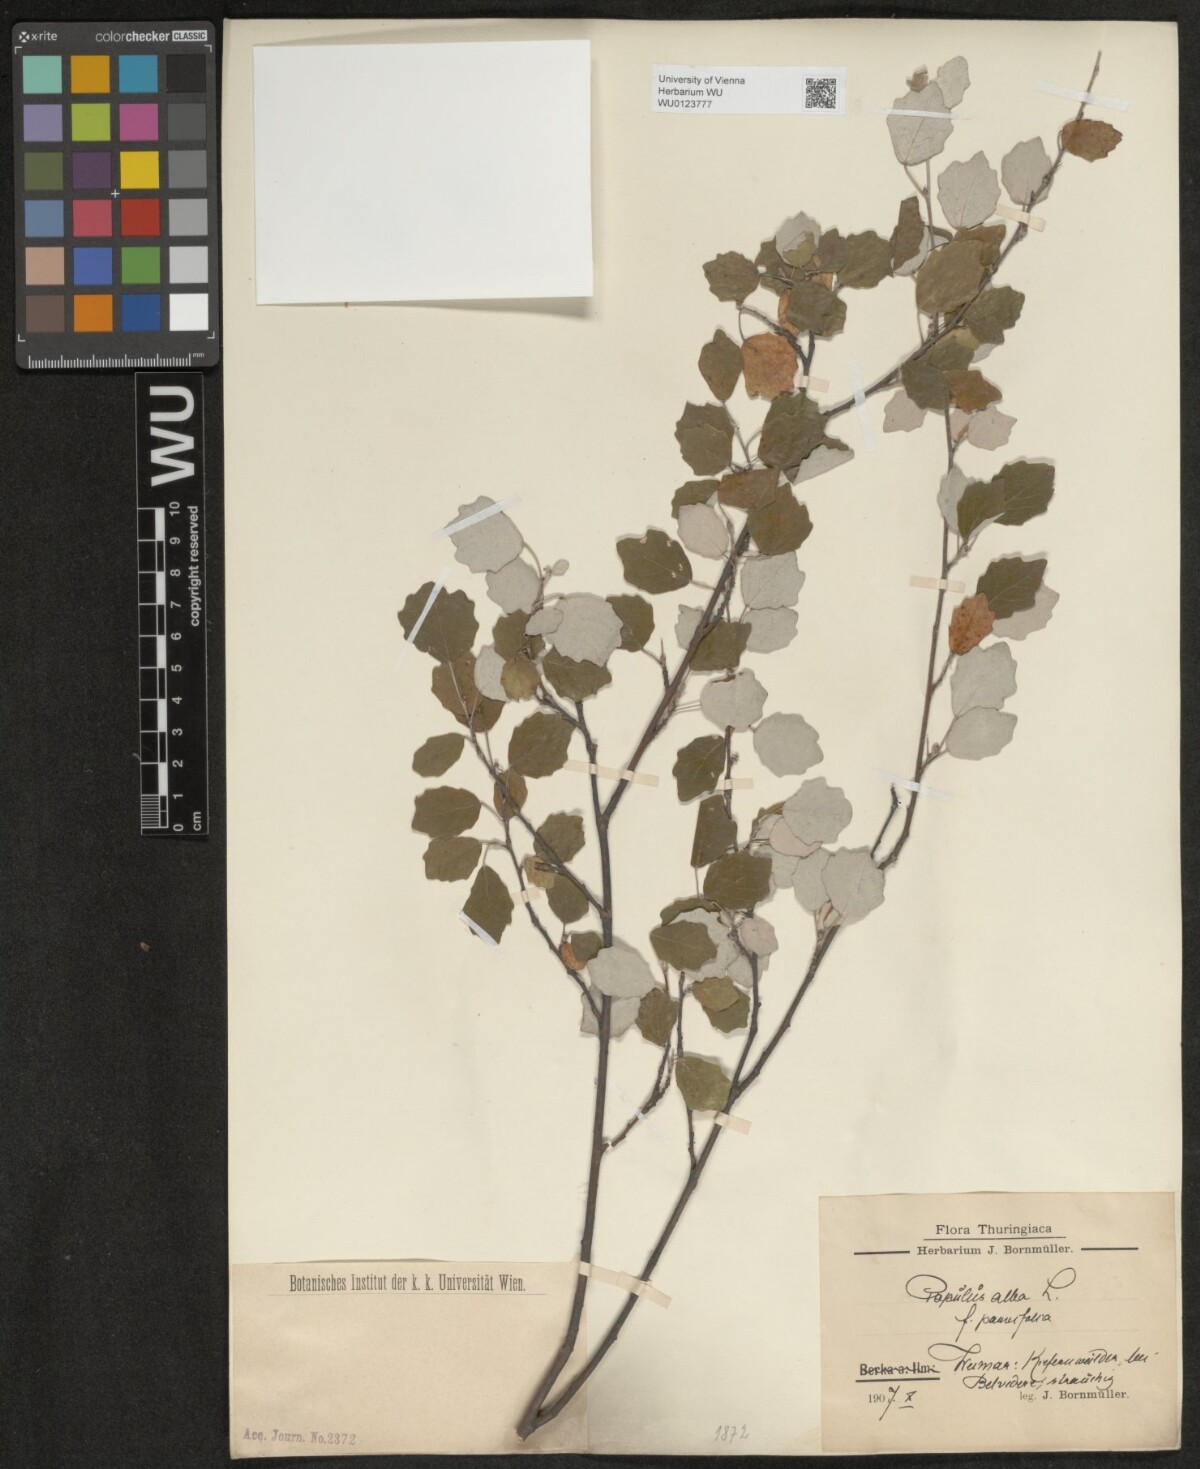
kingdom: Plantae
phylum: Tracheophyta
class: Magnoliopsida
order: Malpighiales
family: Salicaceae
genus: Populus
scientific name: Populus alba
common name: White poplar
